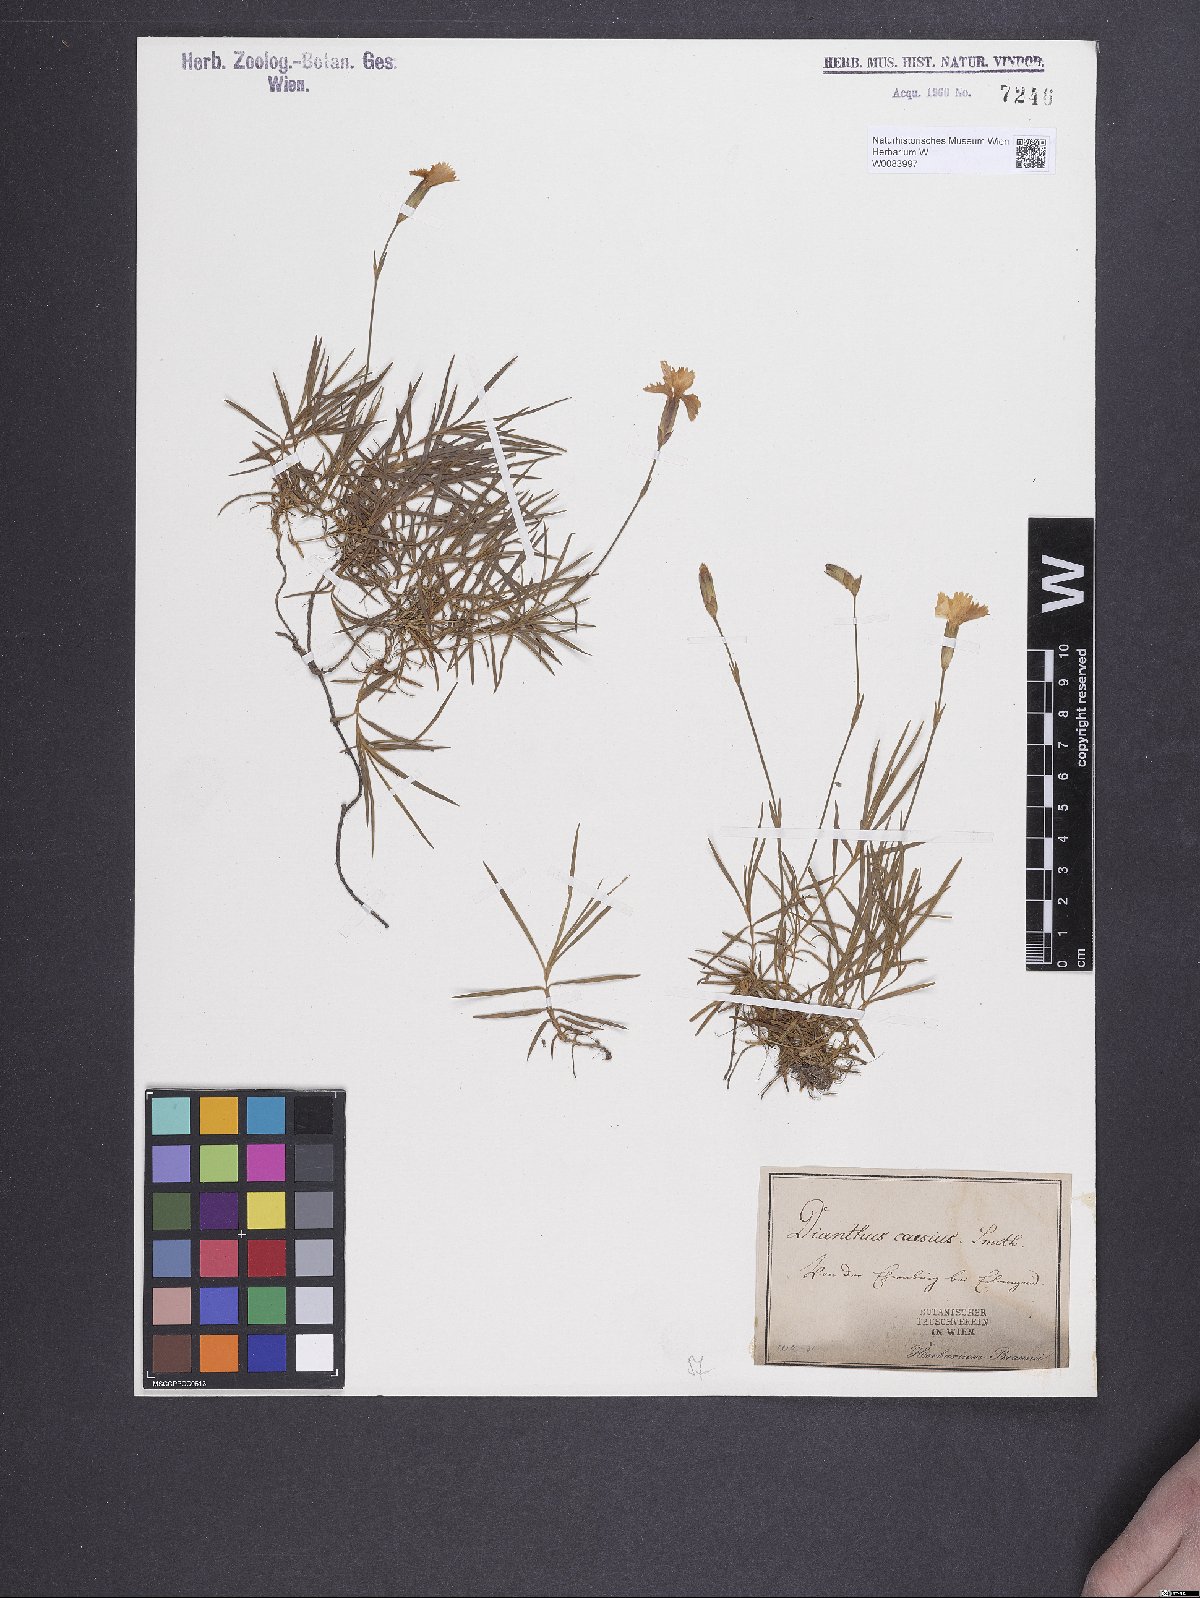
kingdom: Plantae
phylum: Tracheophyta
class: Magnoliopsida
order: Caryophyllales
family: Caryophyllaceae
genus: Dianthus
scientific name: Dianthus gratianopolitanus
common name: Cheddar pink
